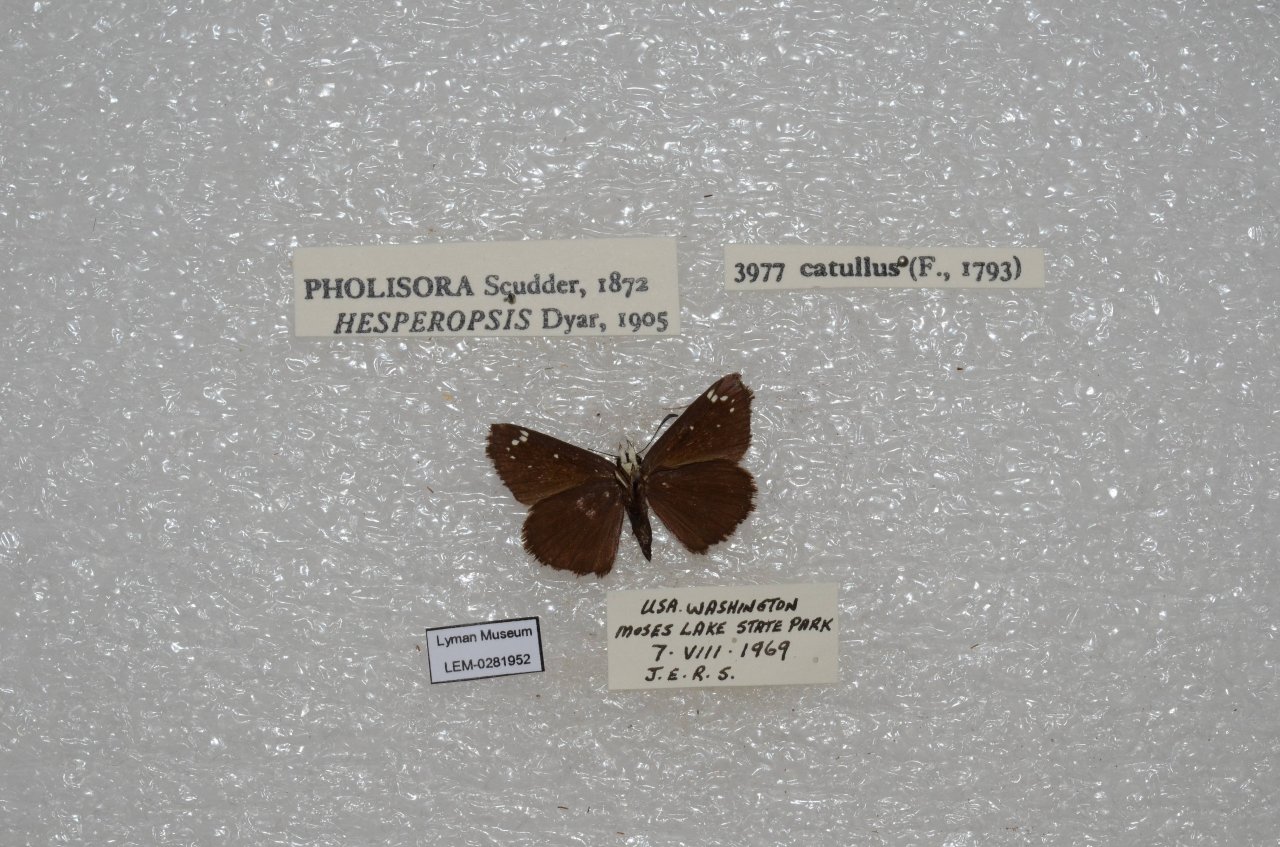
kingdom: Animalia
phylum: Arthropoda
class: Insecta
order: Lepidoptera
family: Hesperiidae
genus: Pholisora
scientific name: Pholisora catullus
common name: Common Sootywing
